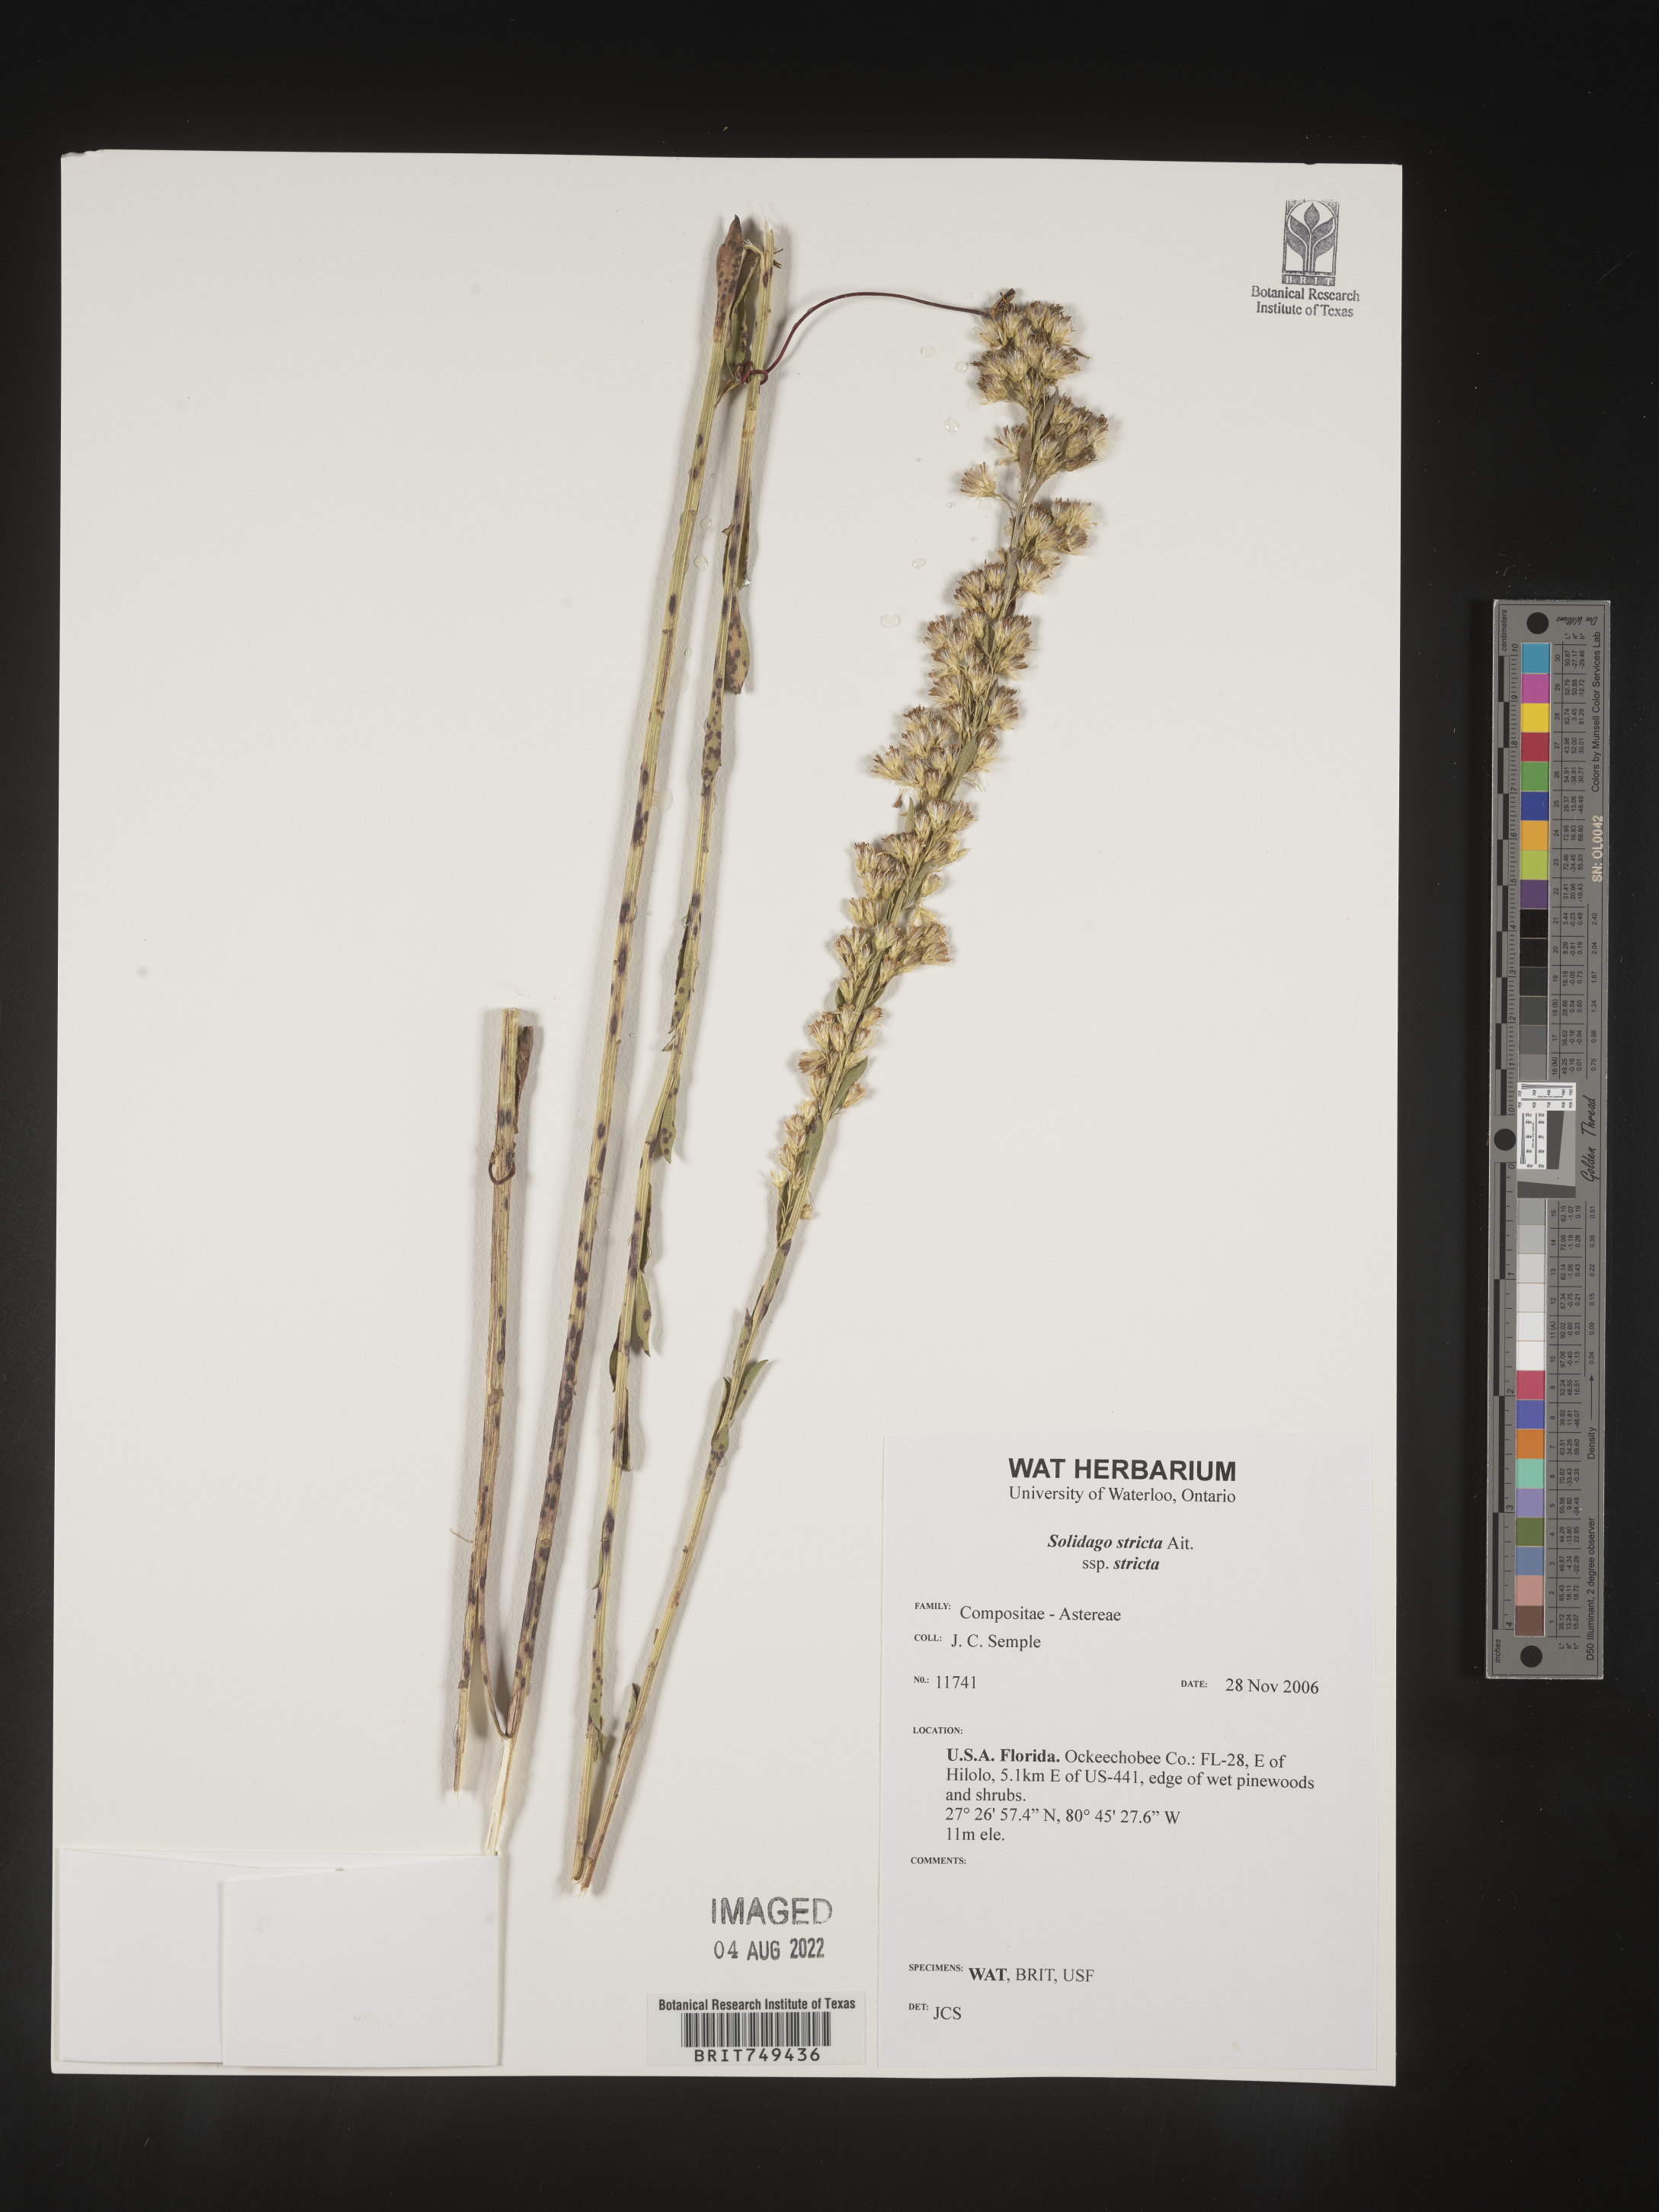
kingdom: Plantae
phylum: Tracheophyta
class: Magnoliopsida
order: Asterales
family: Asteraceae
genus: Solidago
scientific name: Solidago stricta
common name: Pine barren bog goldenrod
